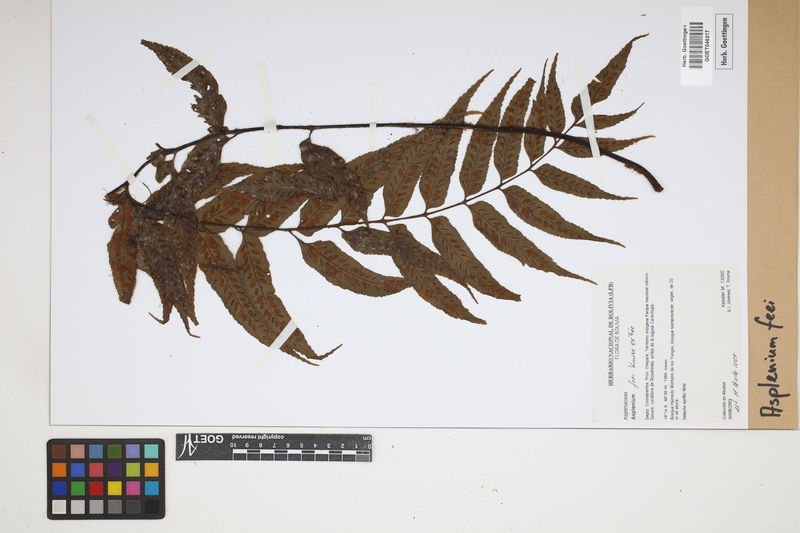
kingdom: Plantae
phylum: Tracheophyta
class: Polypodiopsida
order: Polypodiales
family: Aspleniaceae
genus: Asplenium
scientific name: Asplenium feei
